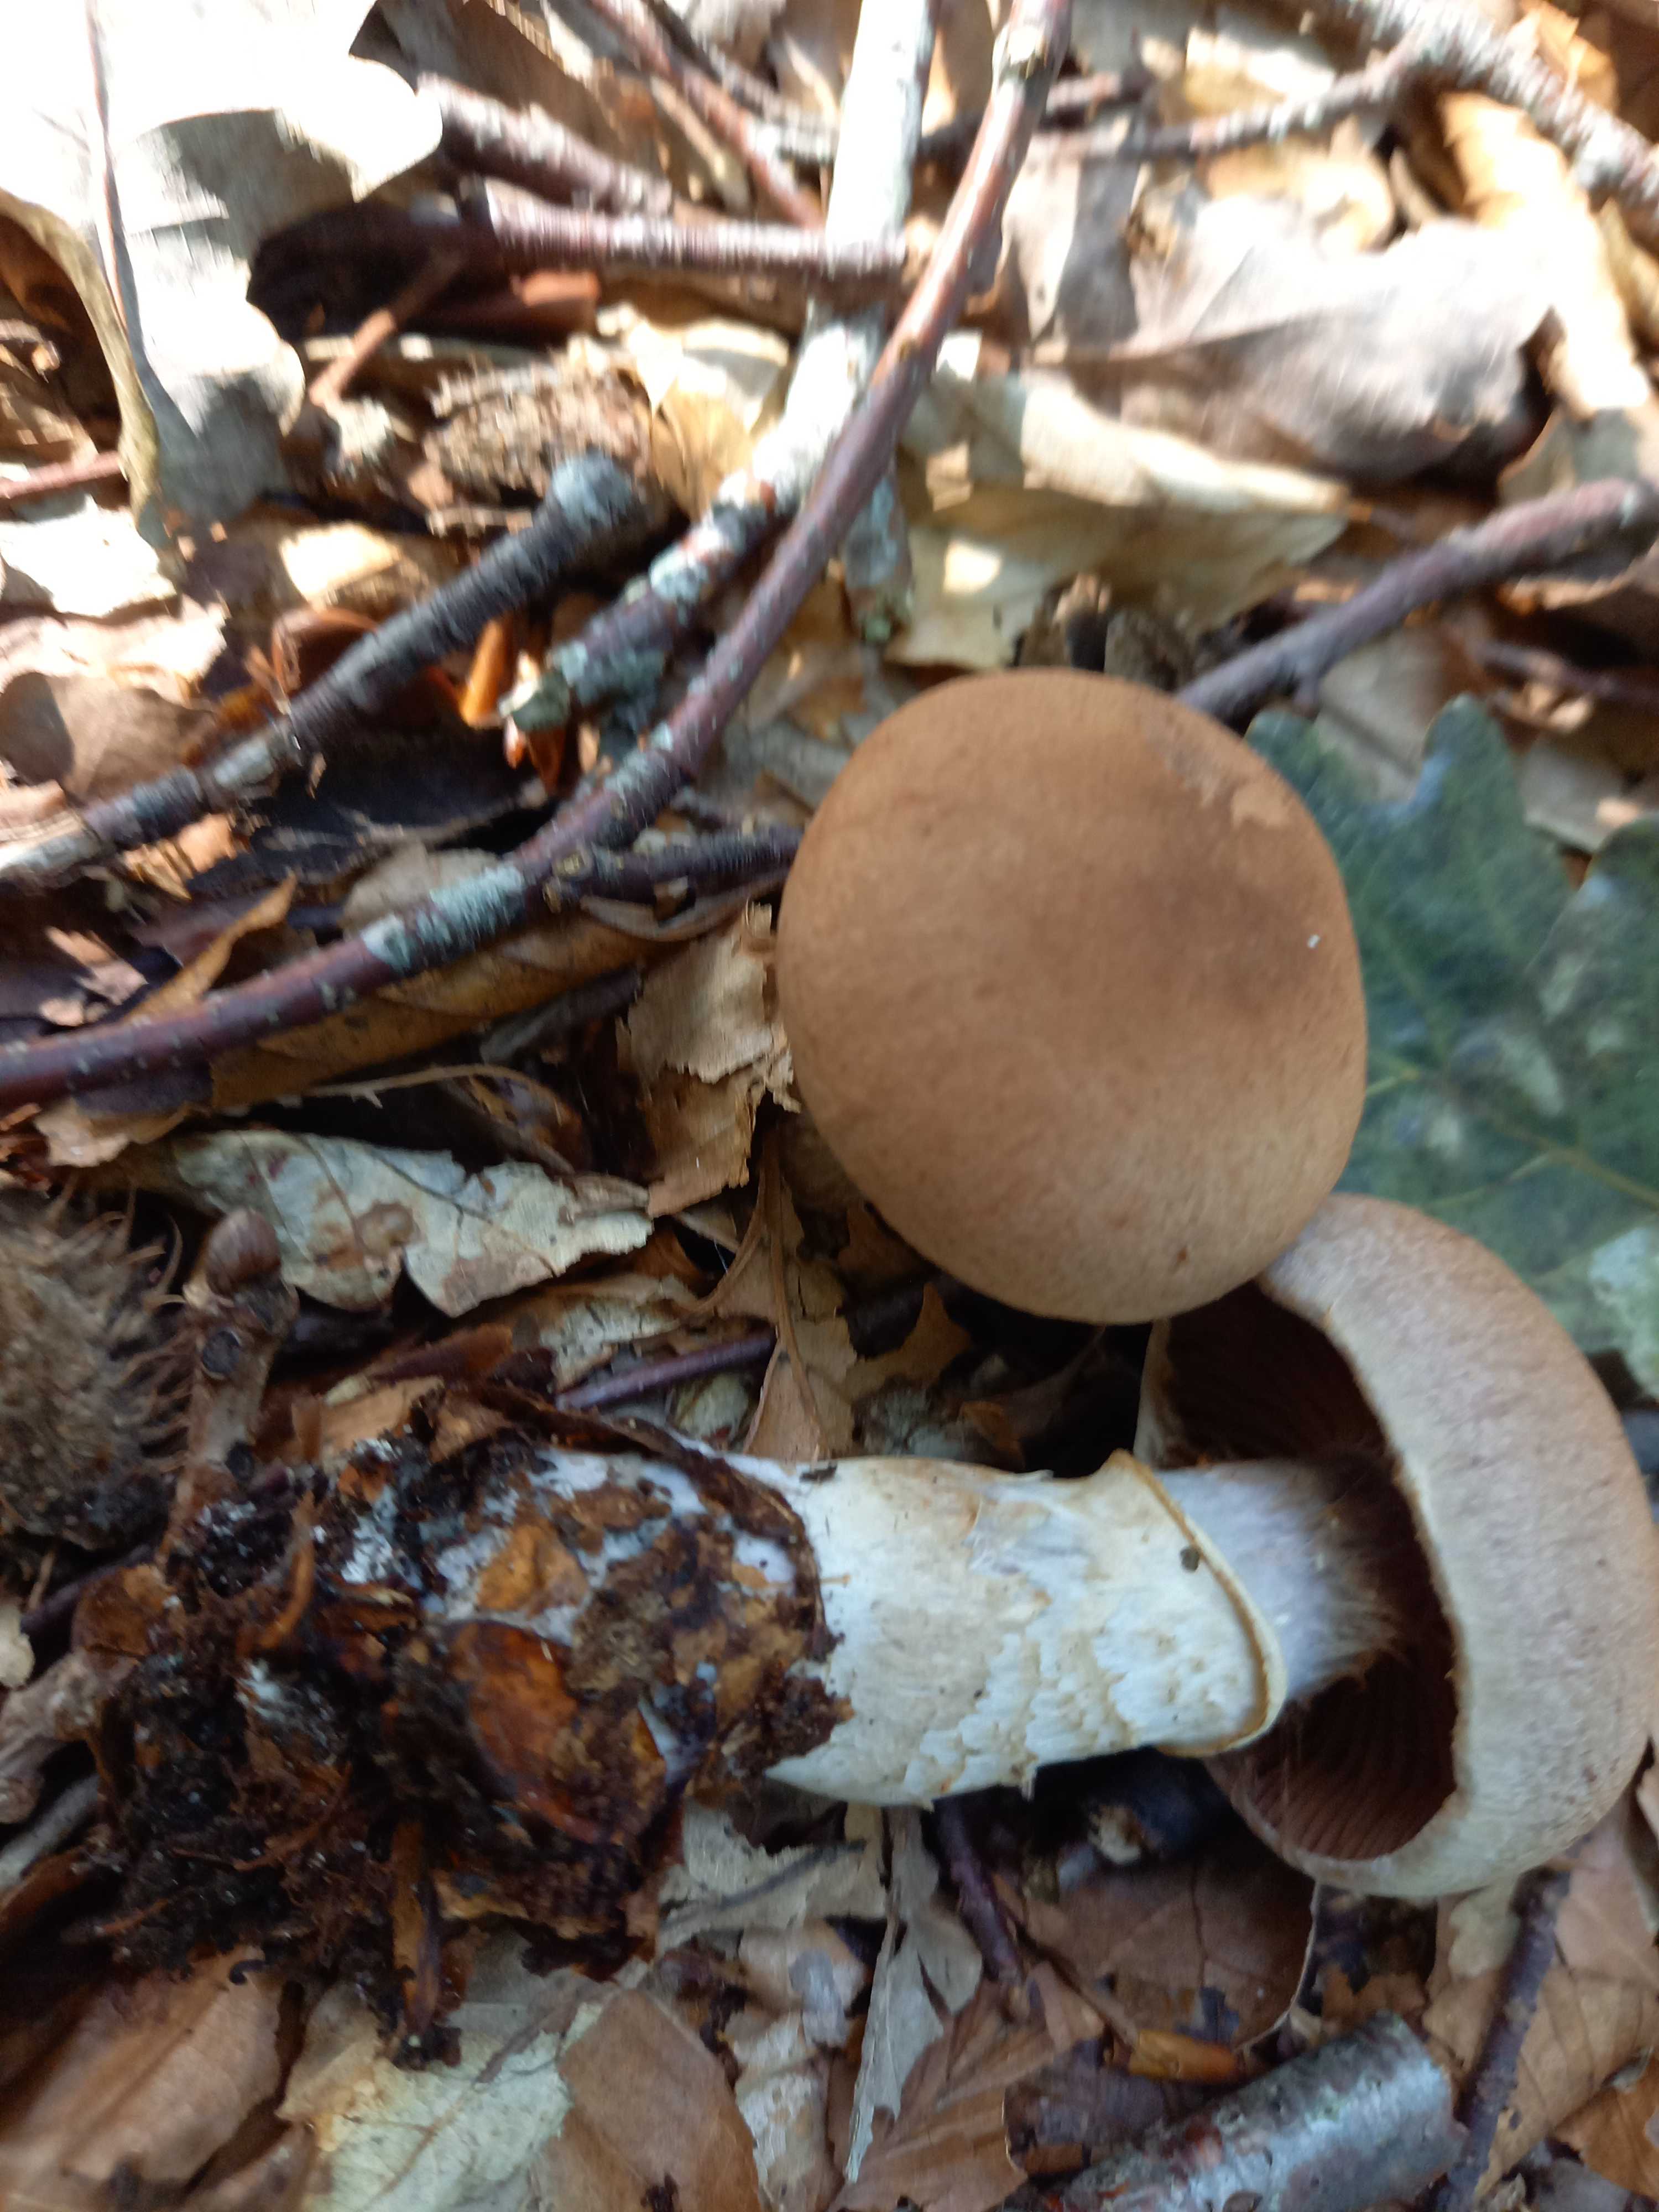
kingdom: Fungi
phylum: Basidiomycota
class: Agaricomycetes
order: Agaricales
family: Cortinariaceae
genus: Cortinarius
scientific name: Cortinarius torvus
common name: champignonagtig slørhat
